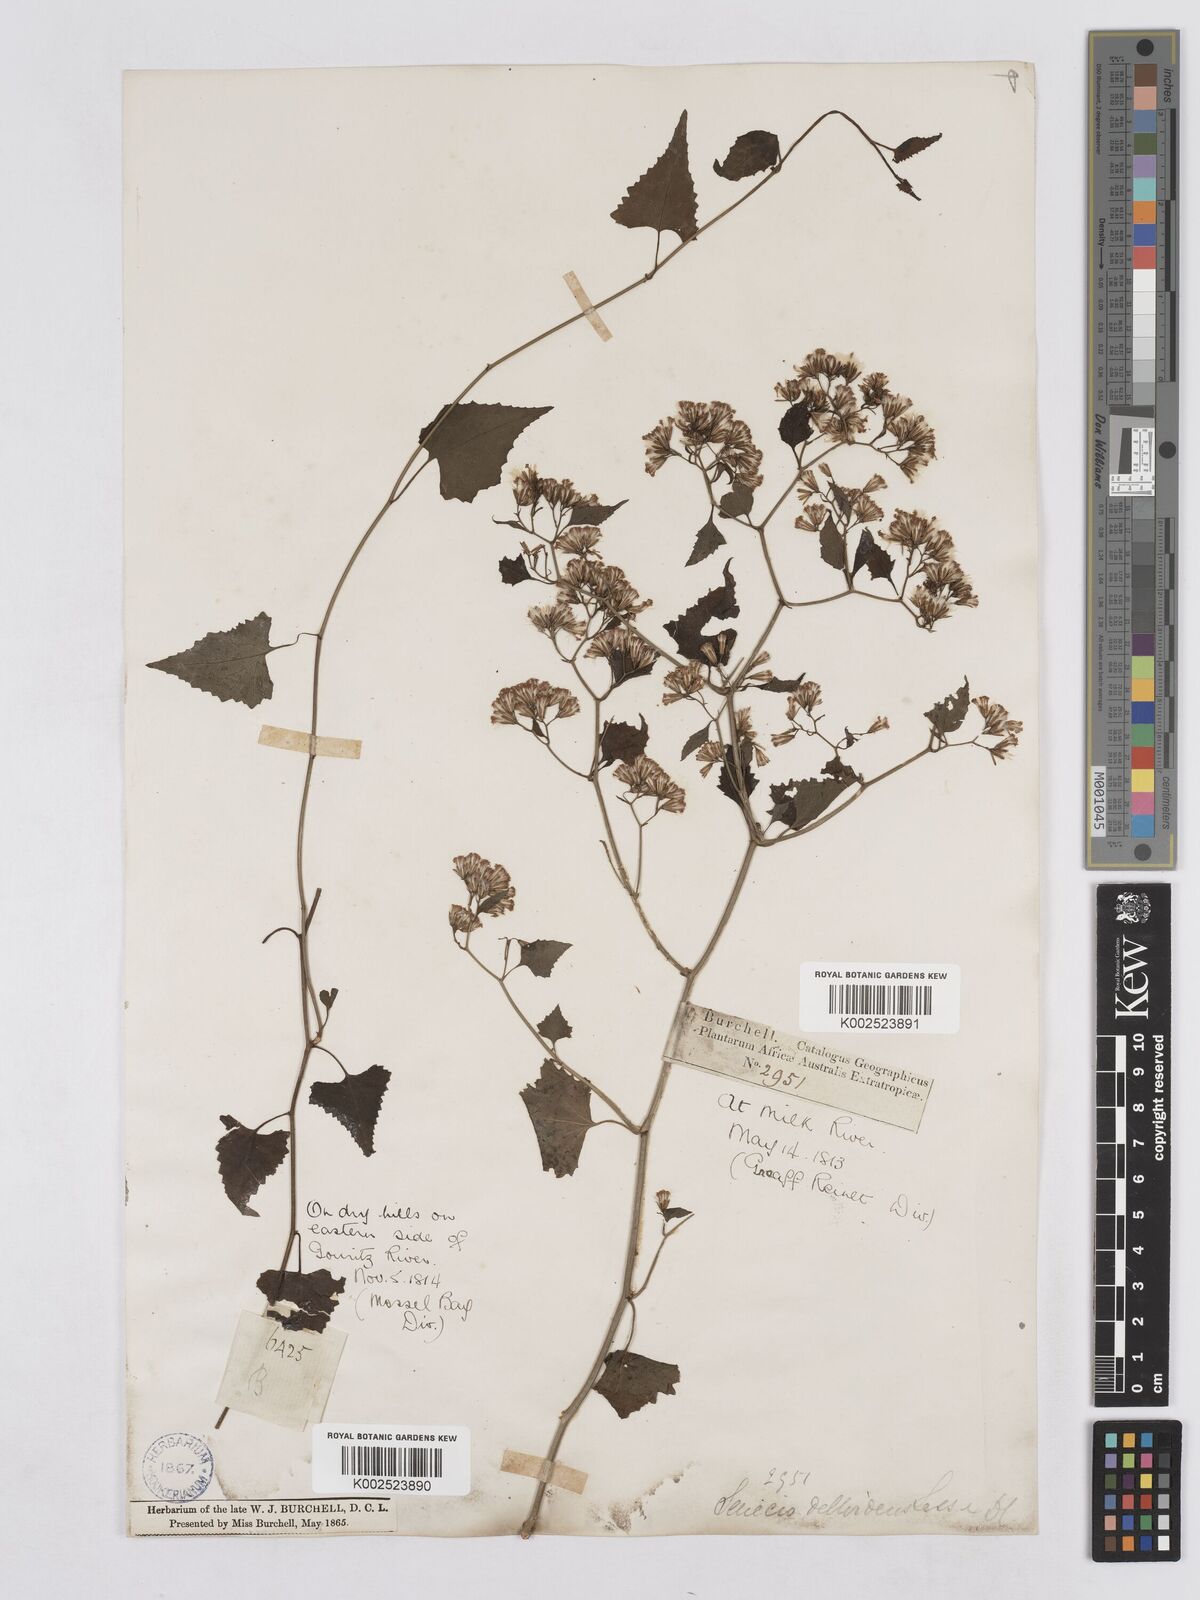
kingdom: Plantae
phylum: Tracheophyta
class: Magnoliopsida
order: Asterales
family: Asteraceae
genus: Senecio
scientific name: Senecio deltoideus
